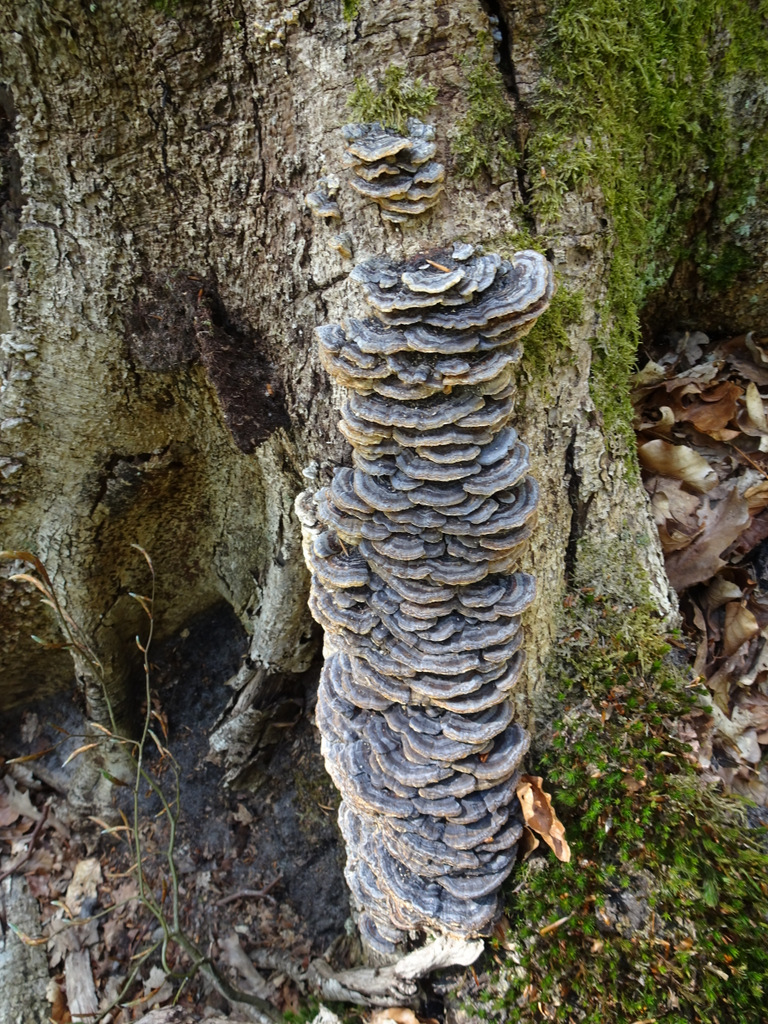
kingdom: Fungi
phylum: Basidiomycota
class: Agaricomycetes
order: Polyporales
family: Polyporaceae
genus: Trametes
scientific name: Trametes versicolor
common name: broget læderporesvamp
